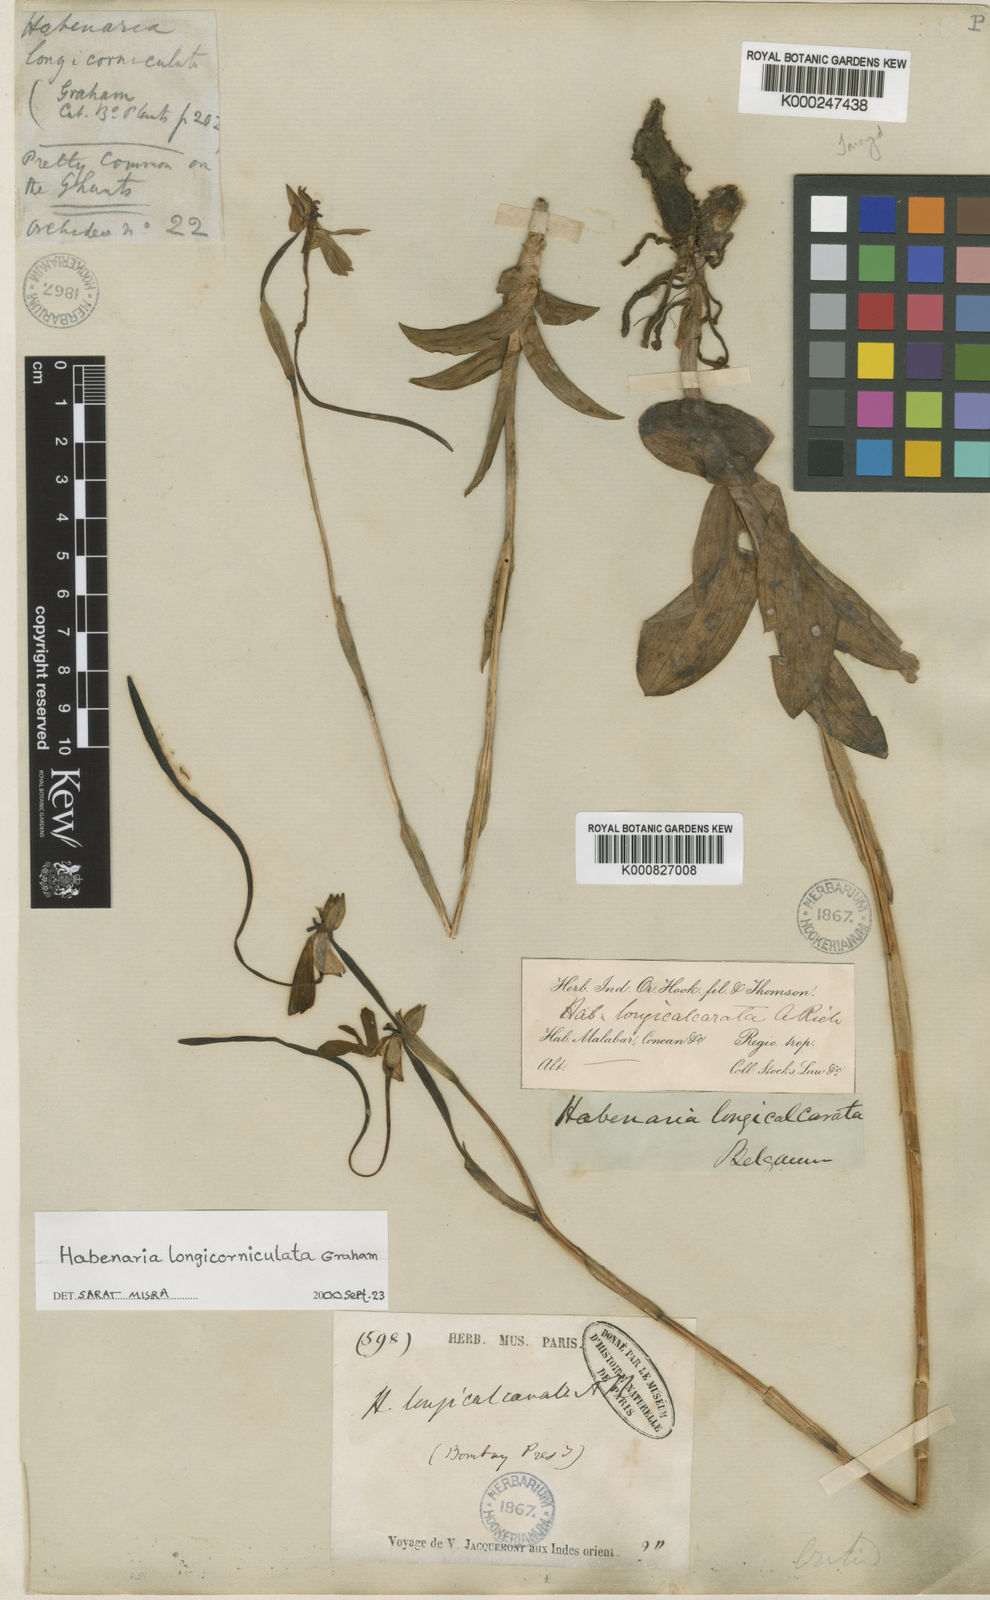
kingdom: Plantae
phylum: Tracheophyta
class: Liliopsida
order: Asparagales
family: Orchidaceae
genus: Habenaria
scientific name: Habenaria longicorniculata
